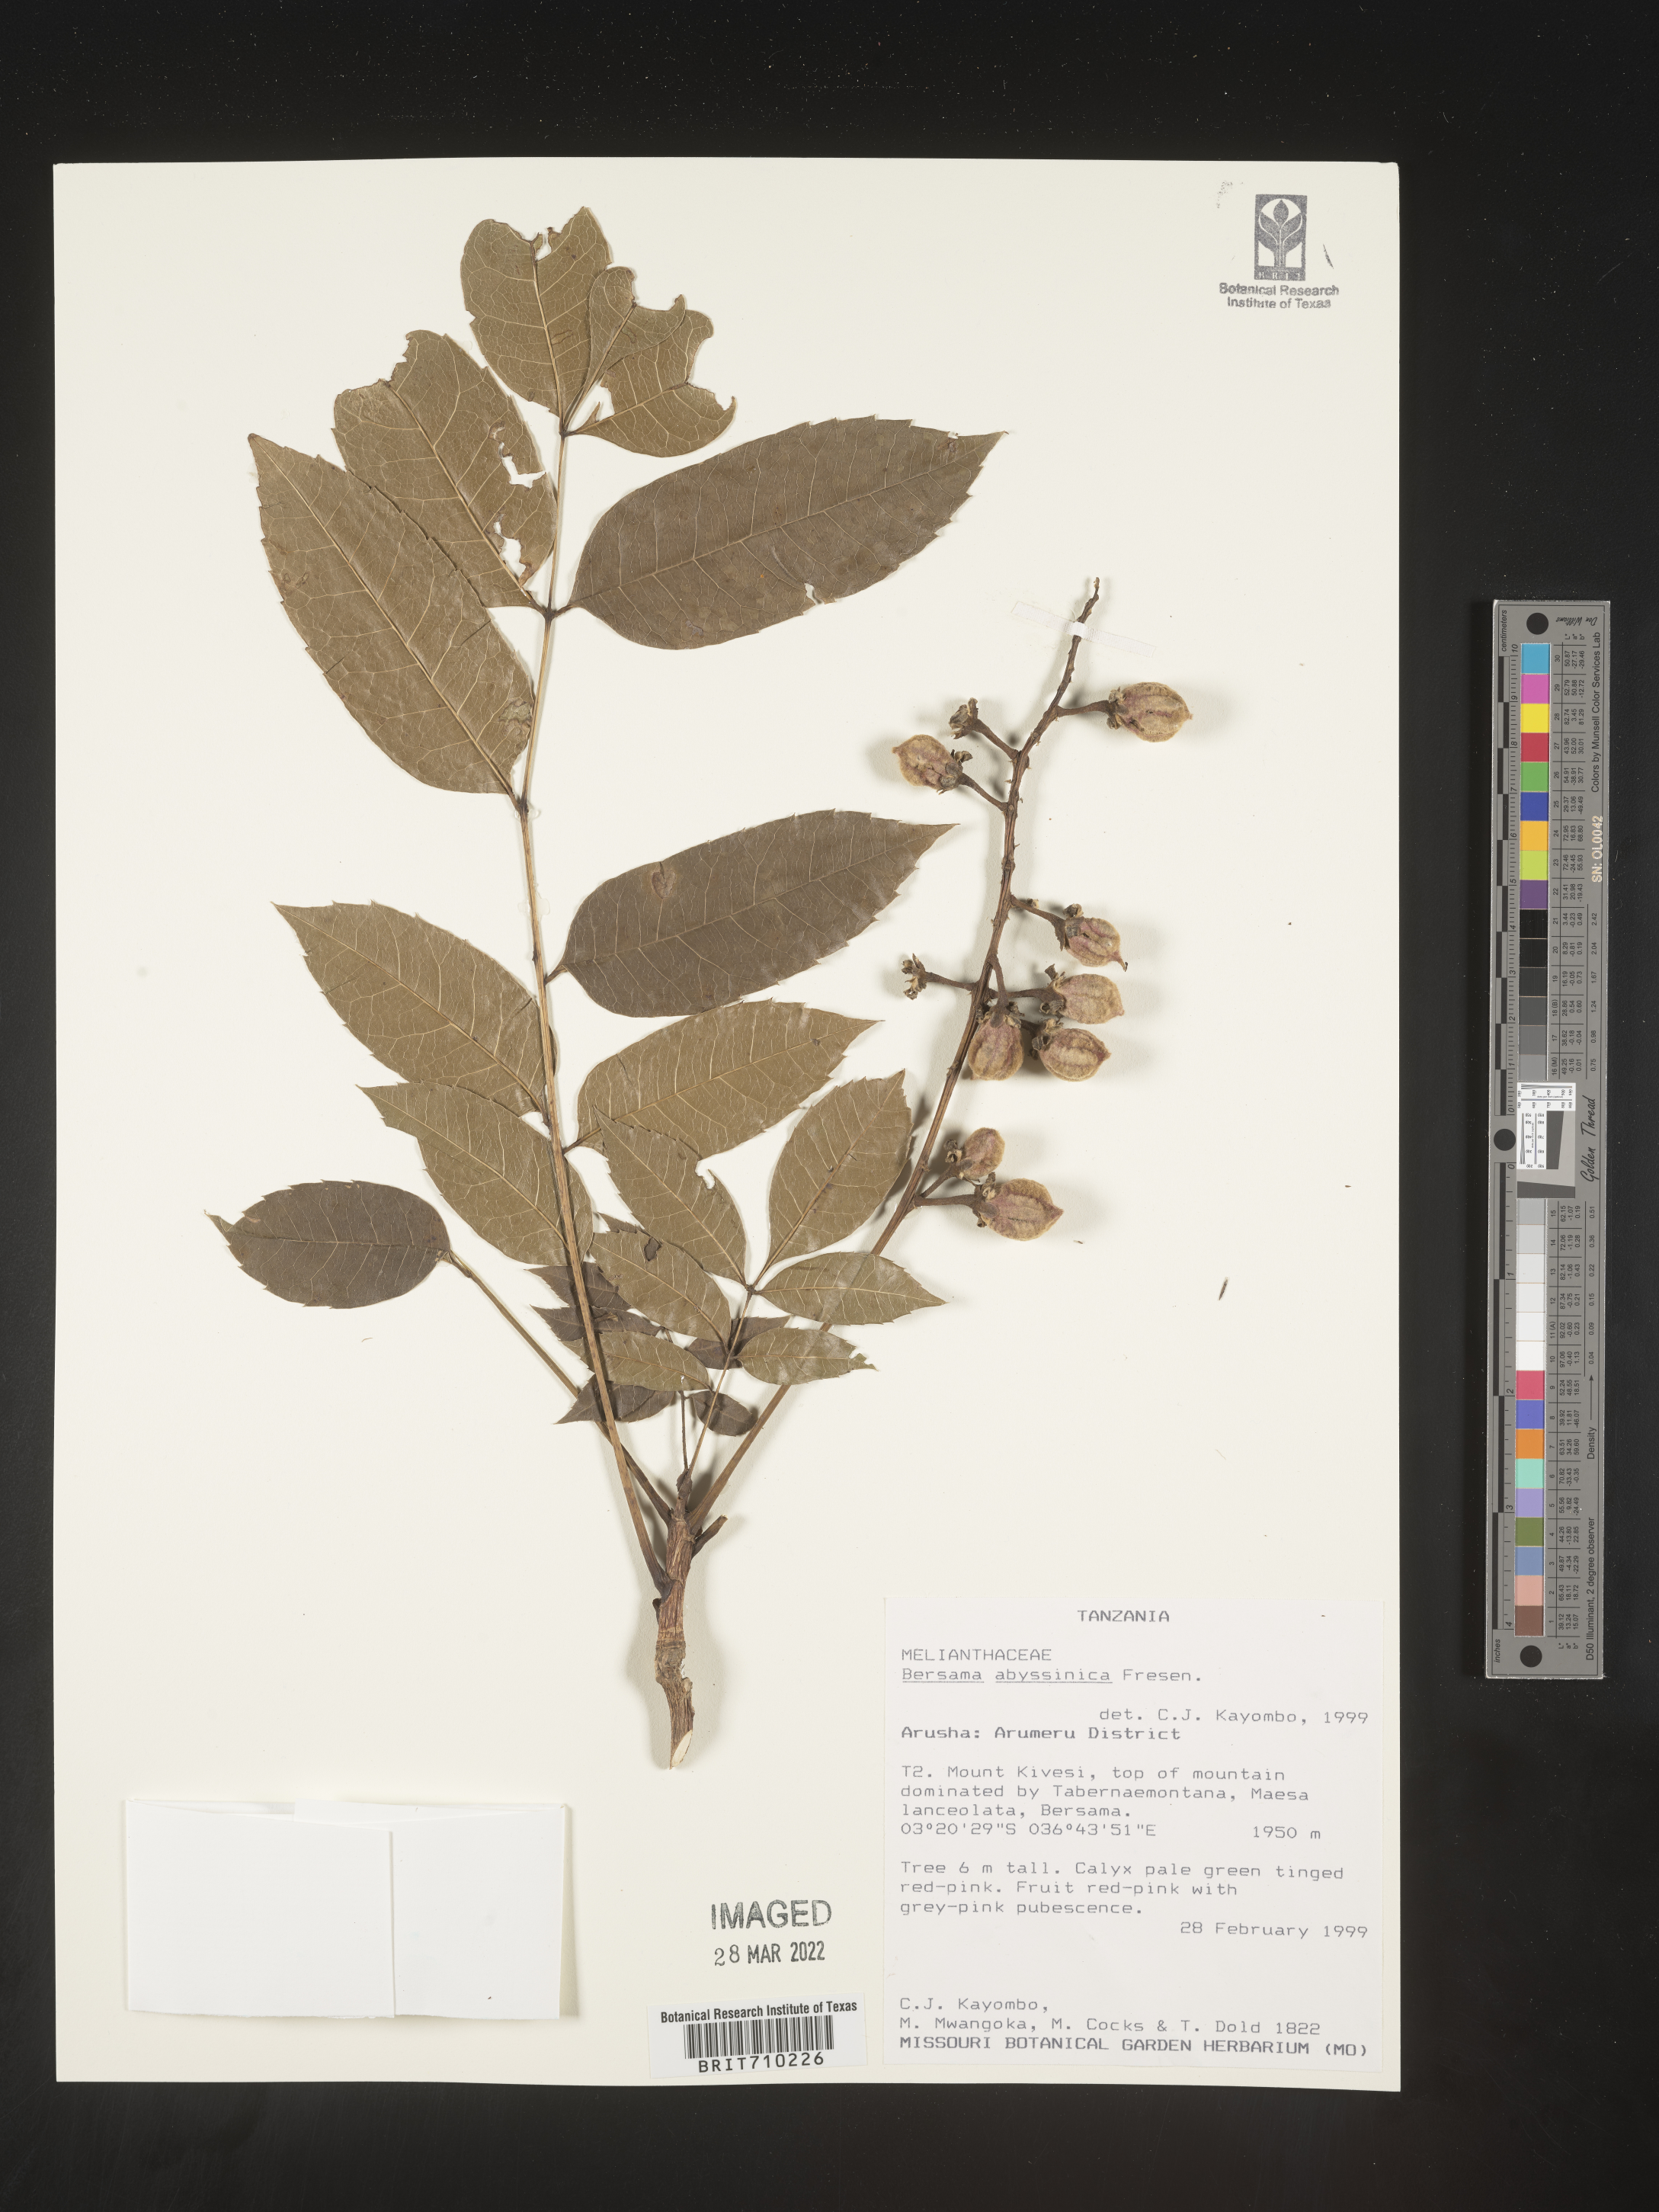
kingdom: Plantae
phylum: Tracheophyta
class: Magnoliopsida
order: Geraniales
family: Melianthaceae
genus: Bersama
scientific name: Bersama
